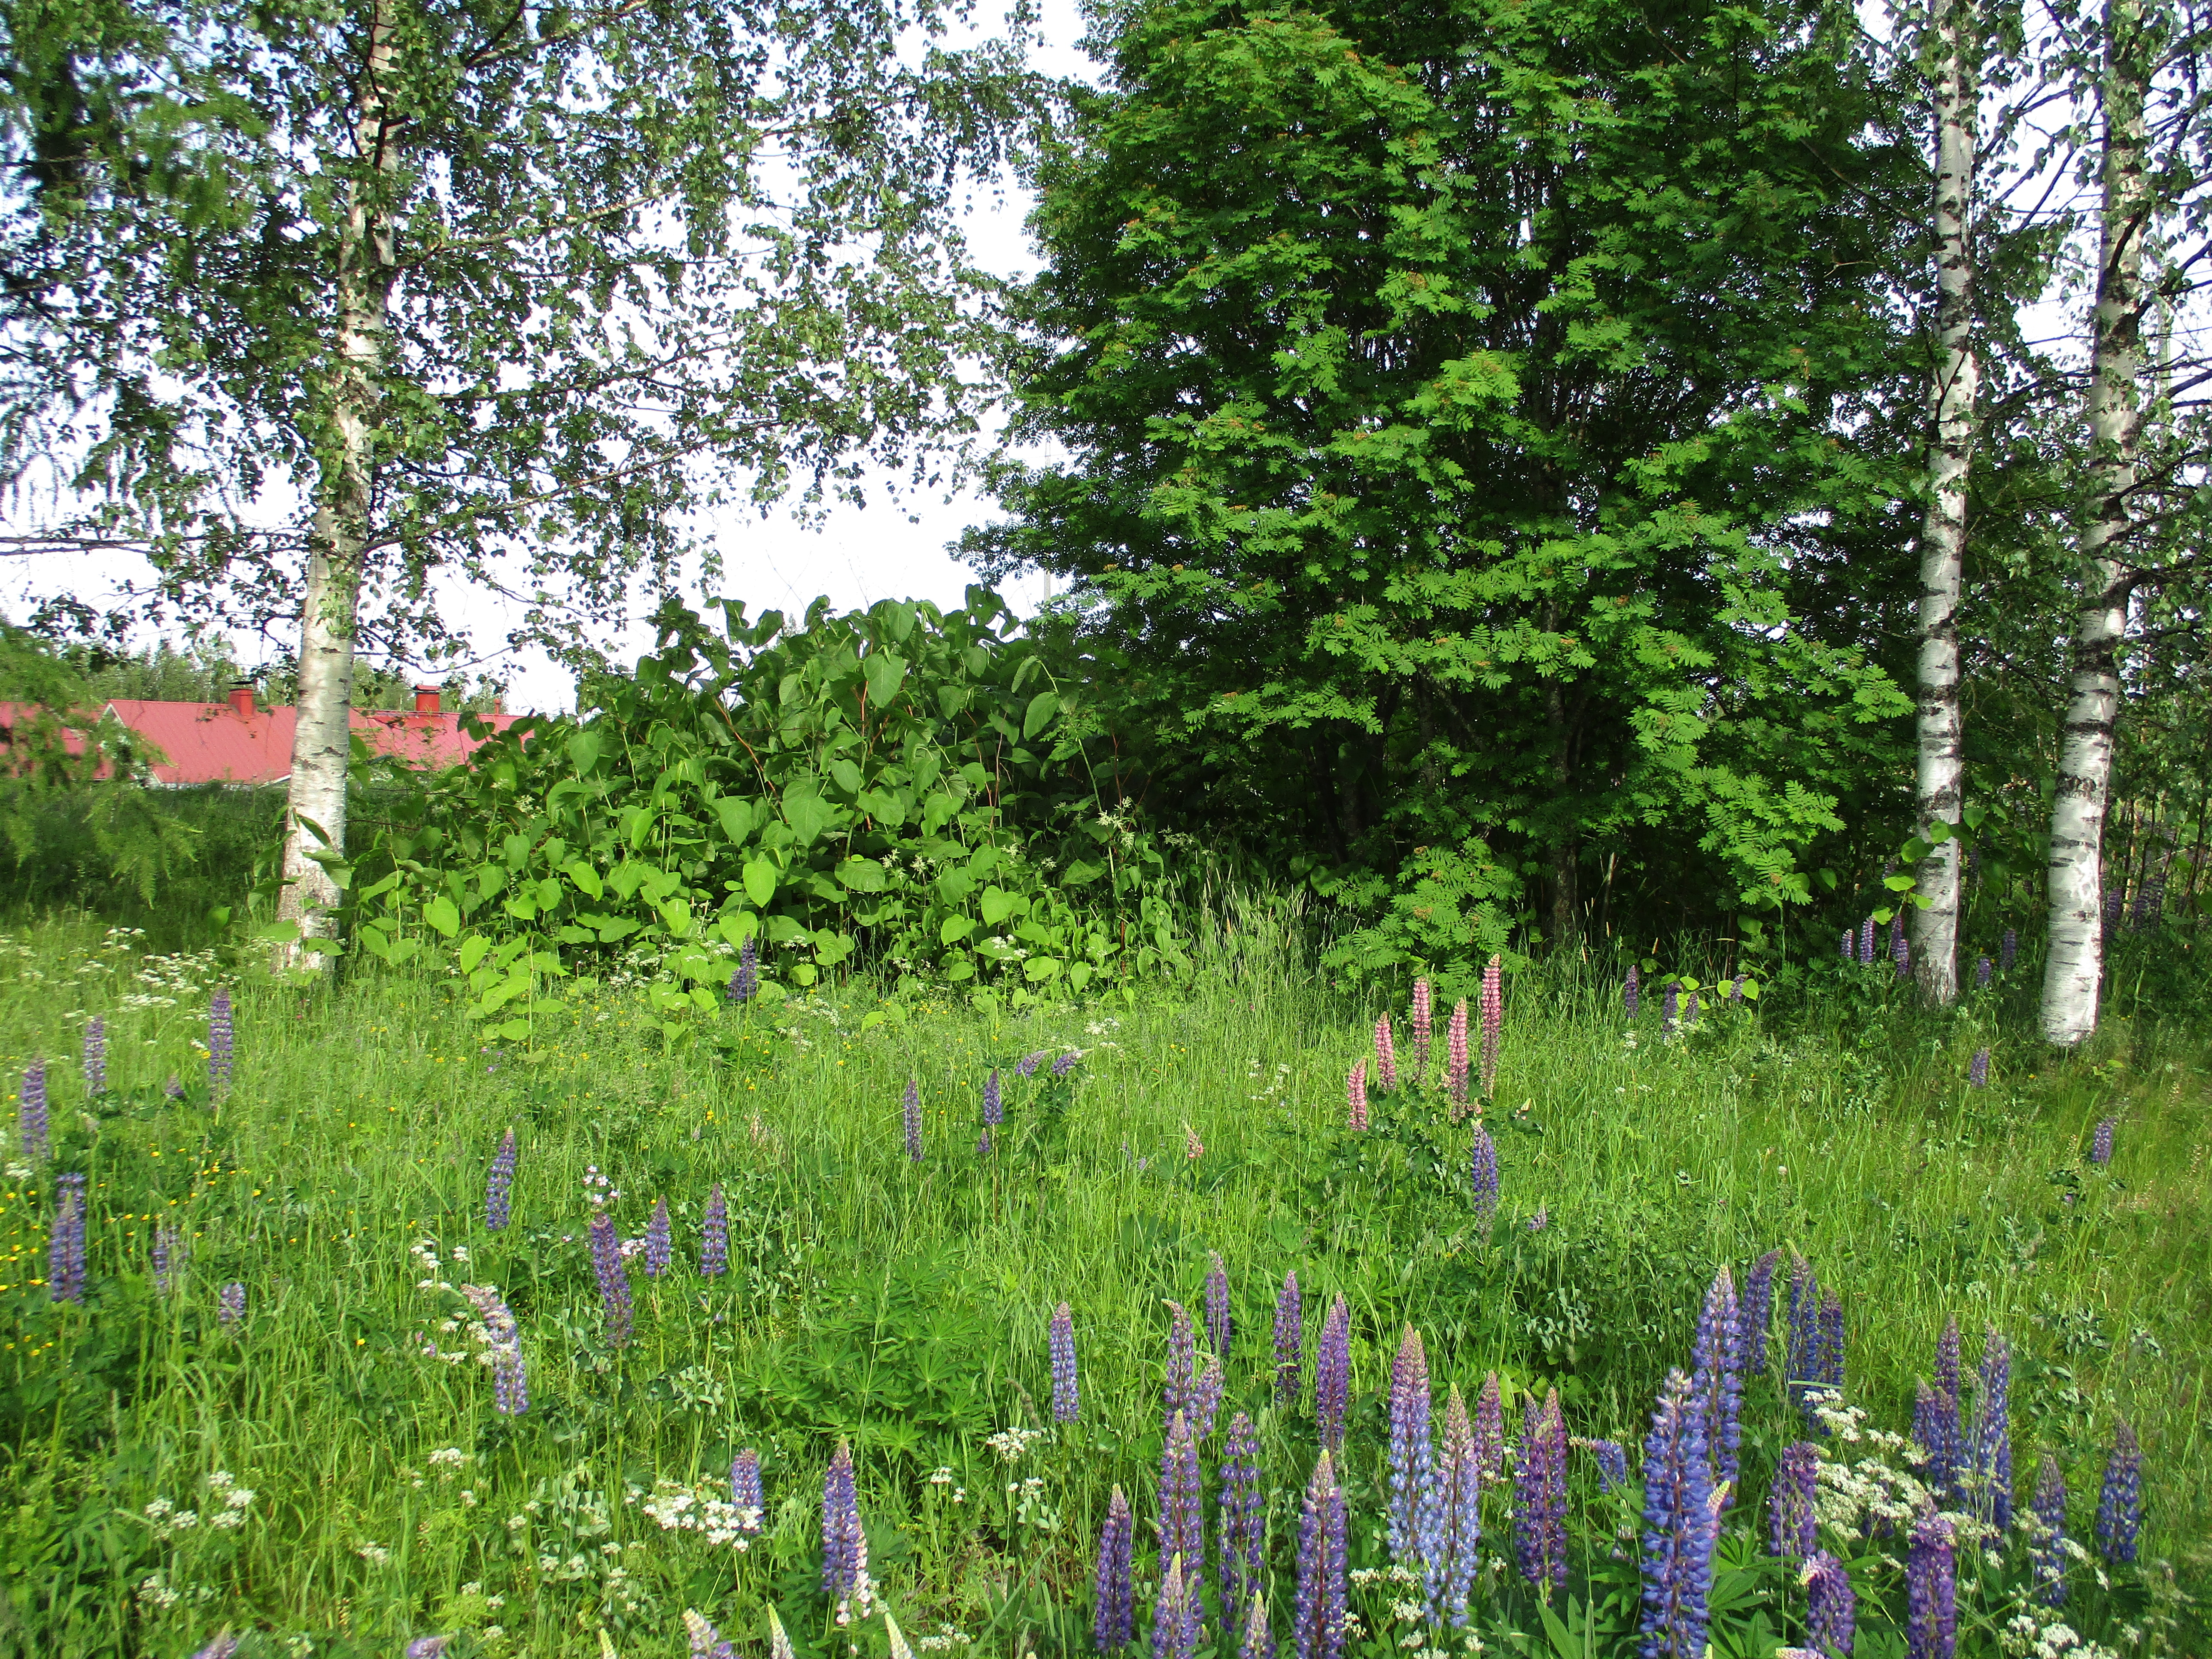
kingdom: Plantae
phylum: Tracheophyta
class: Magnoliopsida
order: Caryophyllales
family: Polygonaceae
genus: Reynoutria
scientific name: Reynoutria
